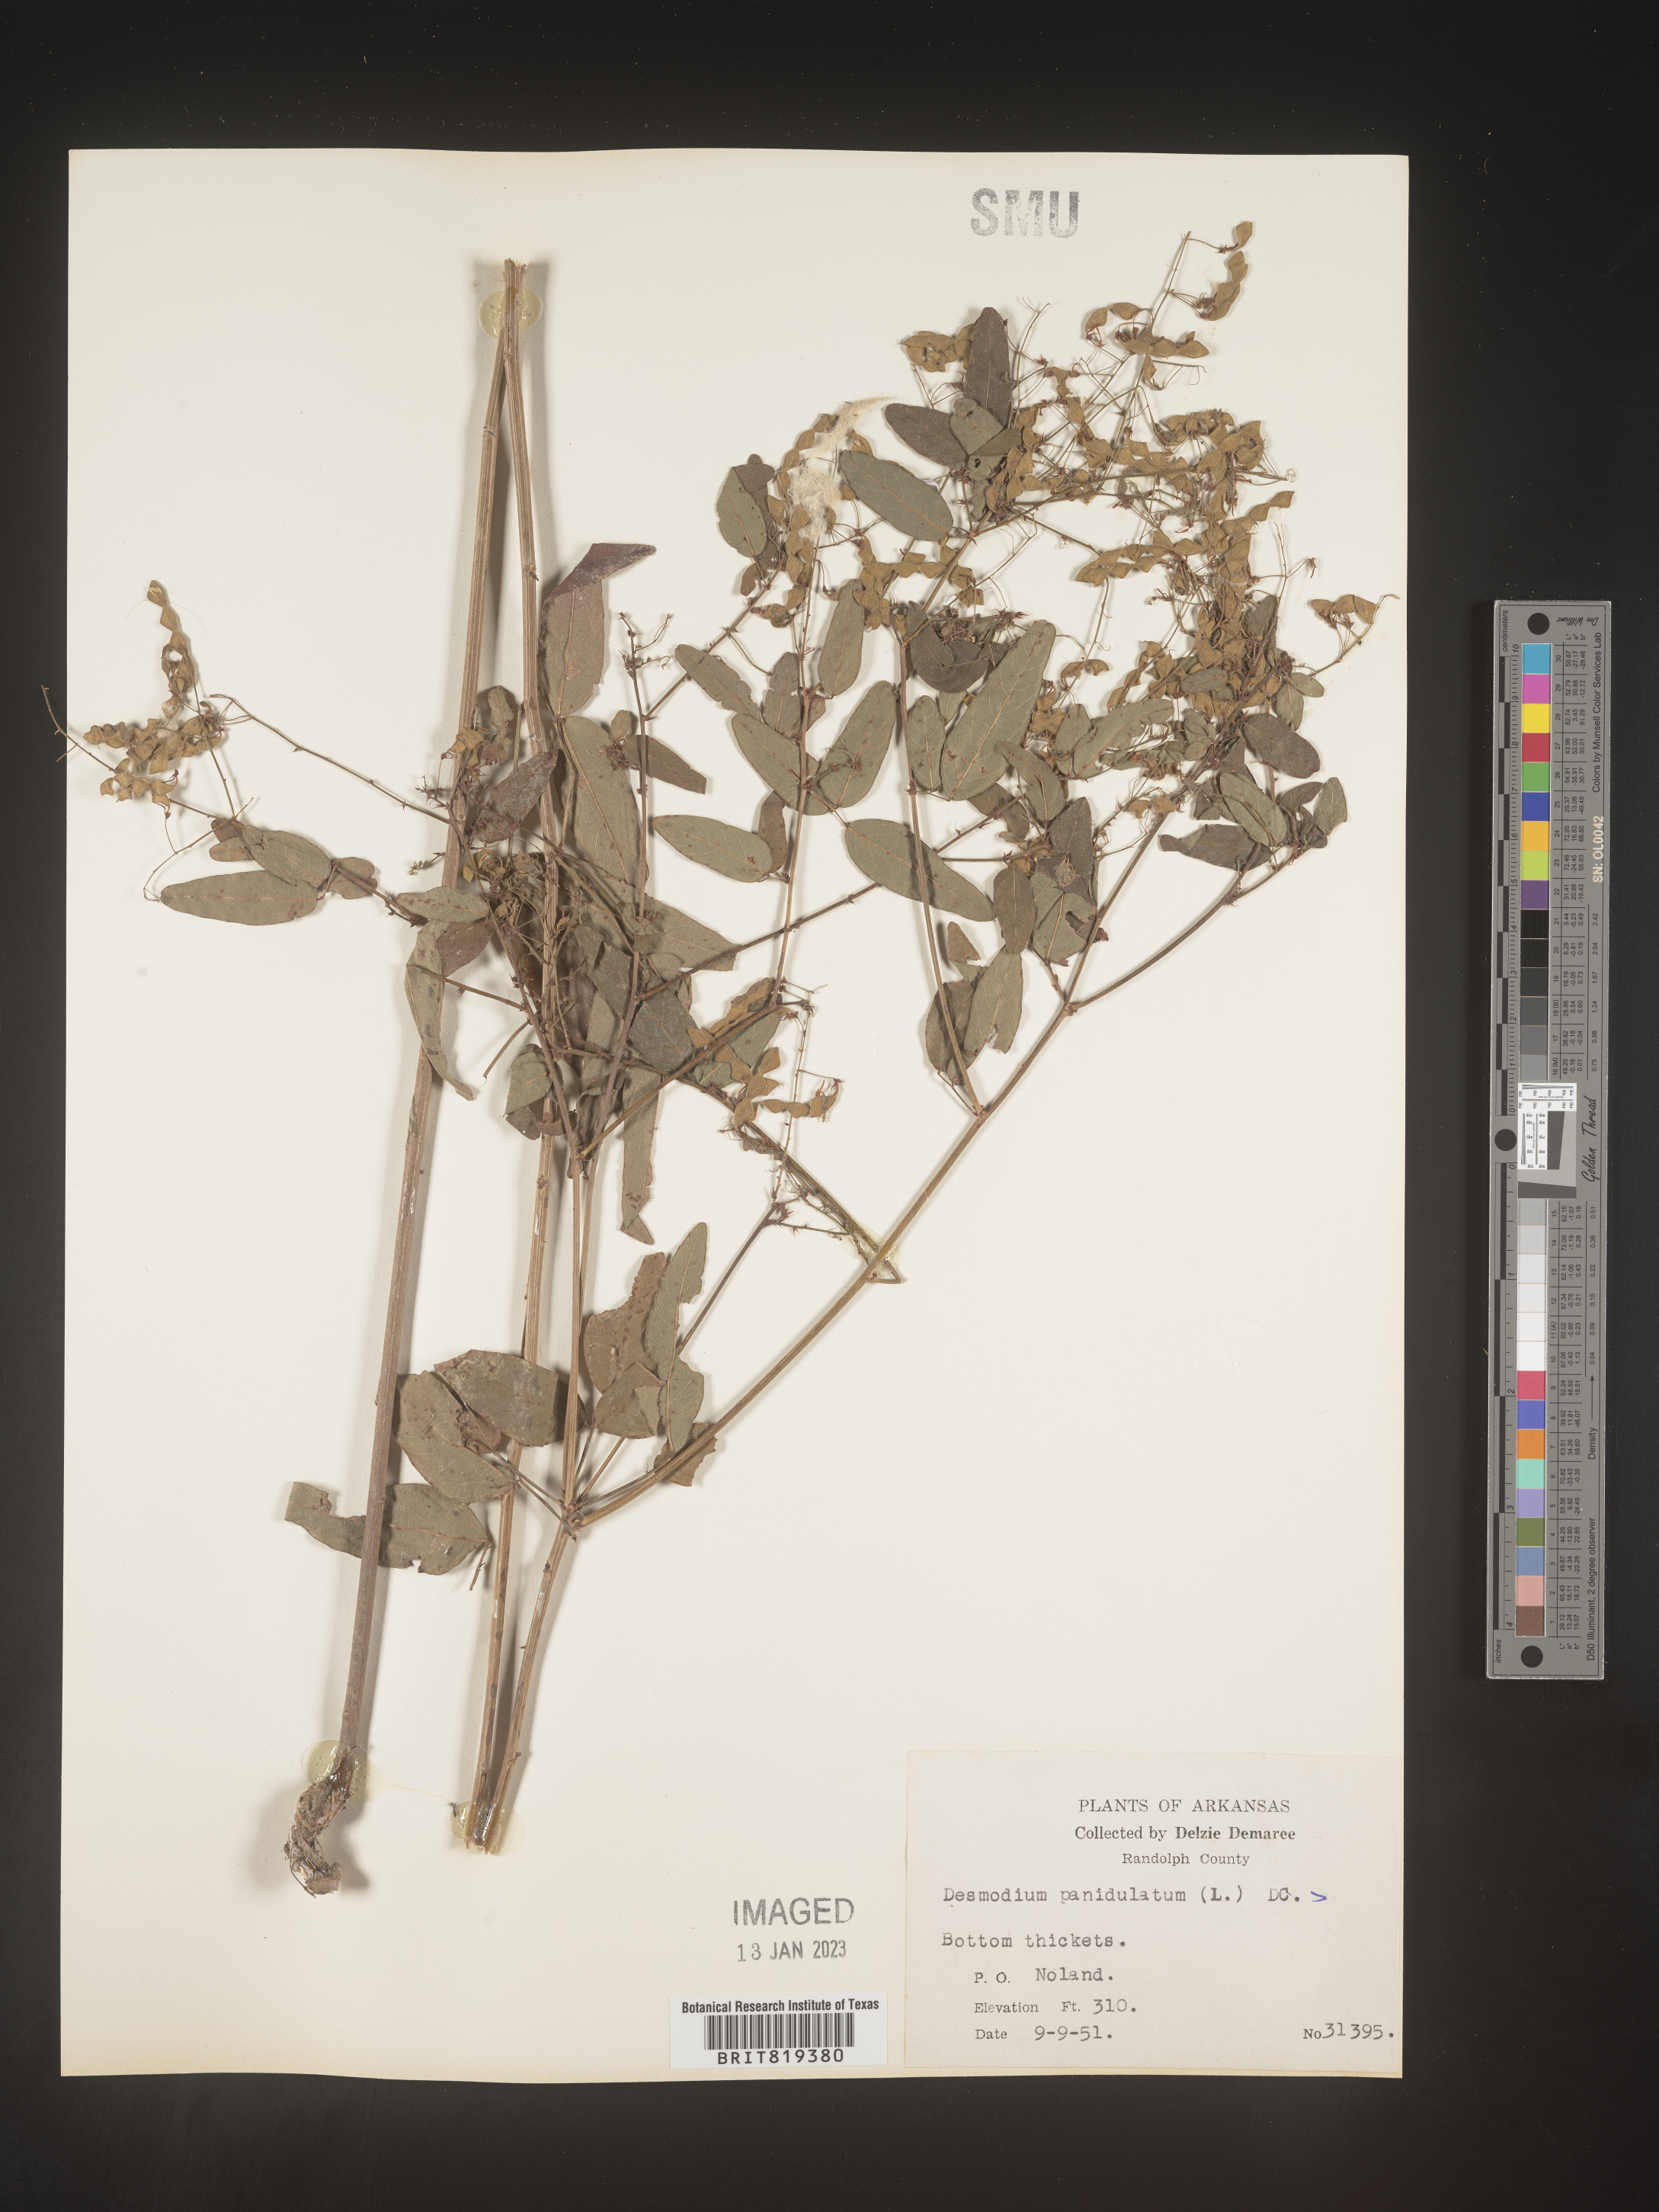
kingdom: Plantae
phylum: Tracheophyta
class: Magnoliopsida
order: Fabales
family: Fabaceae
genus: Desmodium
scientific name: Desmodium paniculatum
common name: Panicled tick-clover
